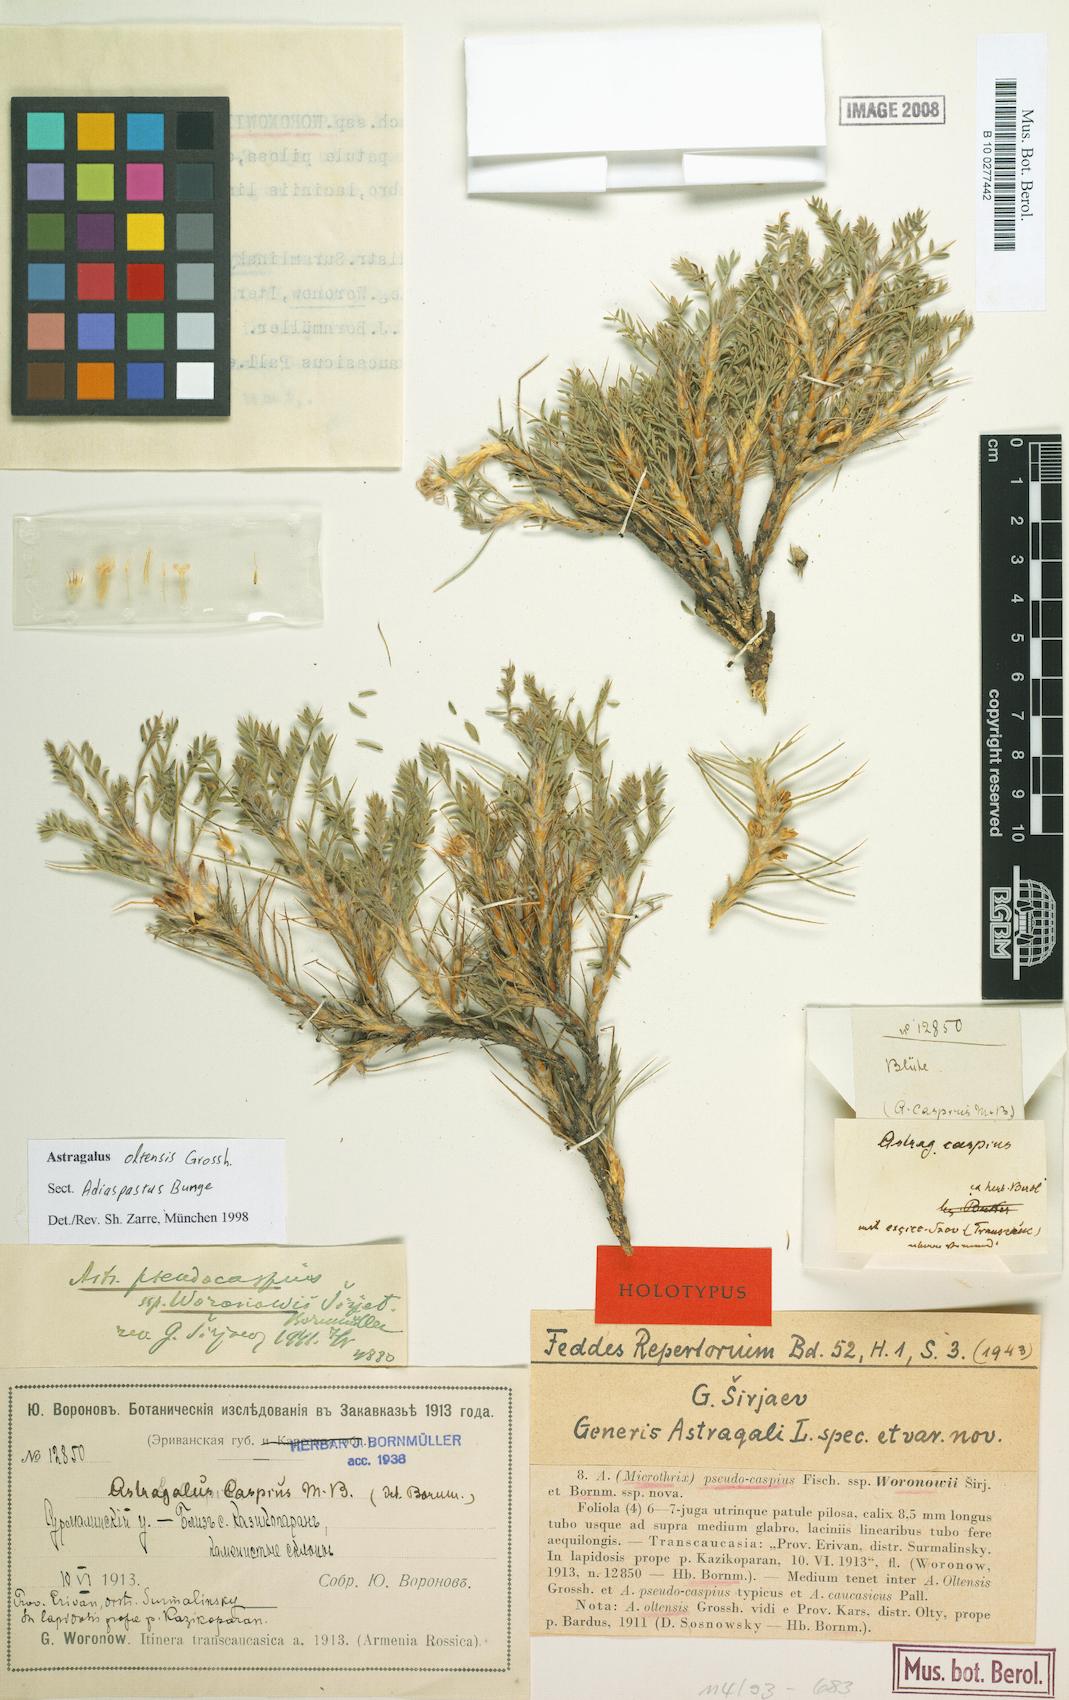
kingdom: Plantae
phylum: Tracheophyta
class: Magnoliopsida
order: Fabales
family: Fabaceae
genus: Astragalus
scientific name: Astragalus oltensis
